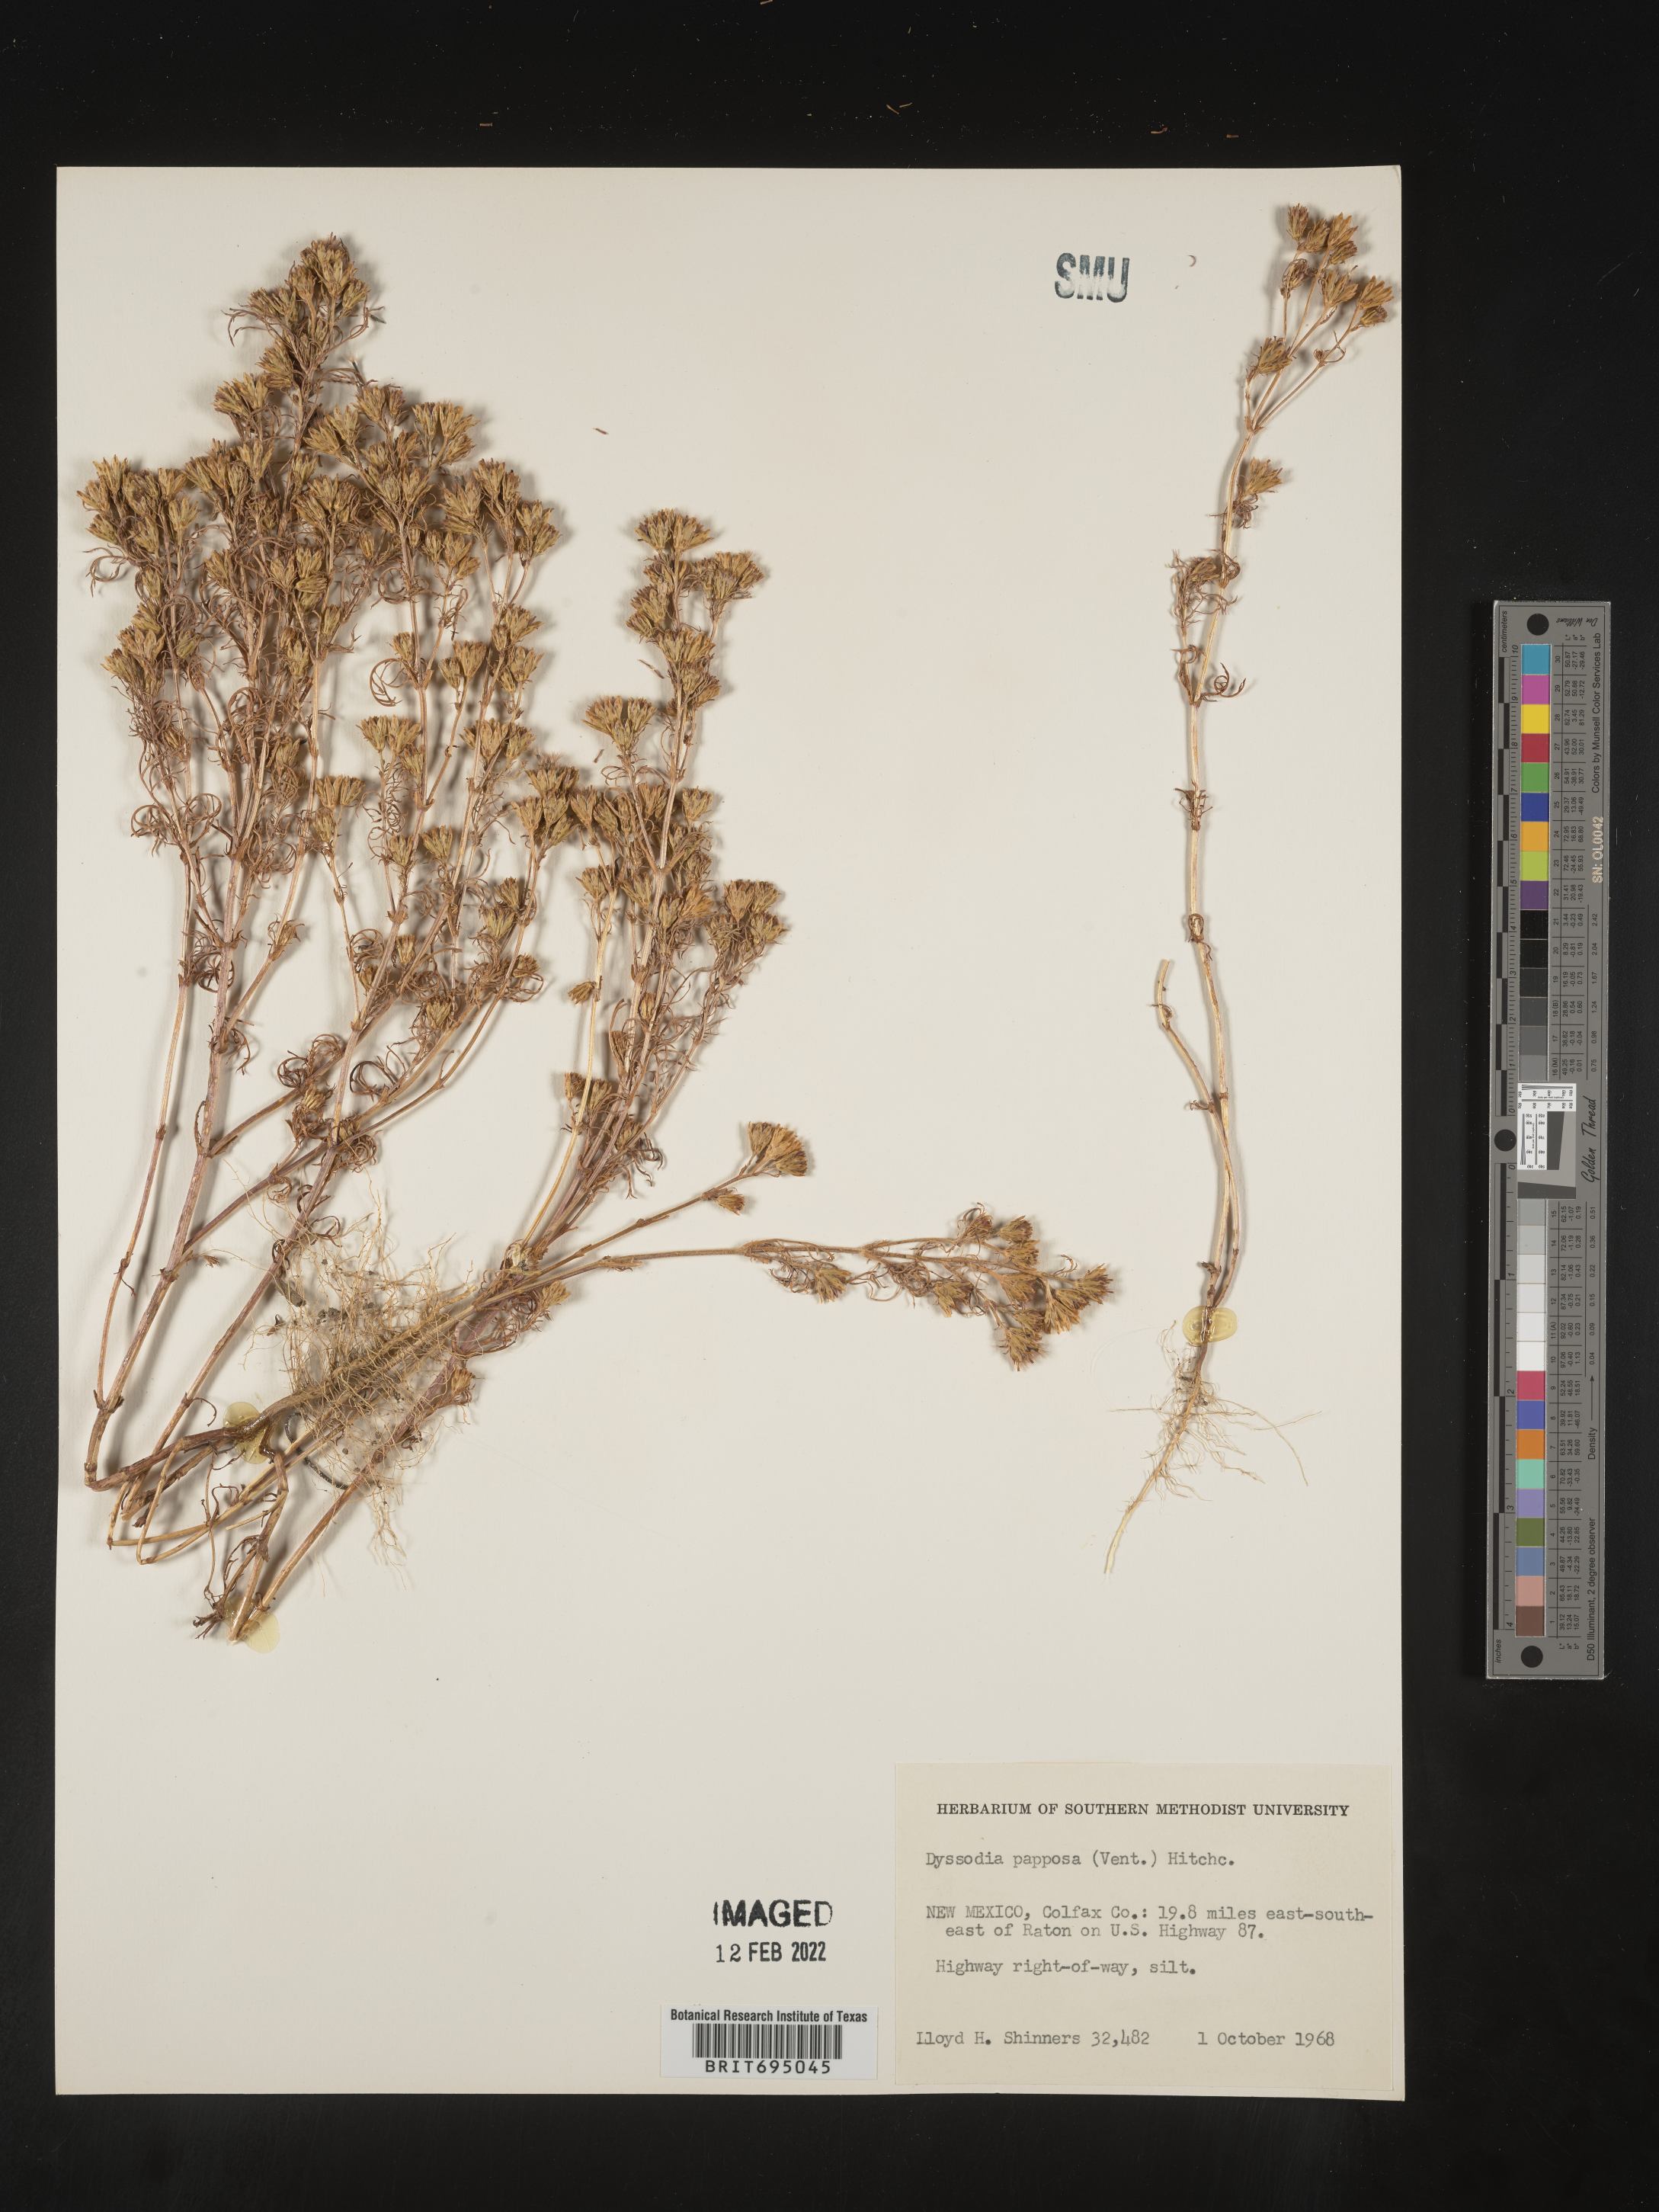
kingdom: Plantae
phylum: Tracheophyta
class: Magnoliopsida
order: Asterales
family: Asteraceae
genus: Dyssodia
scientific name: Dyssodia papposa
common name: Dogweed
